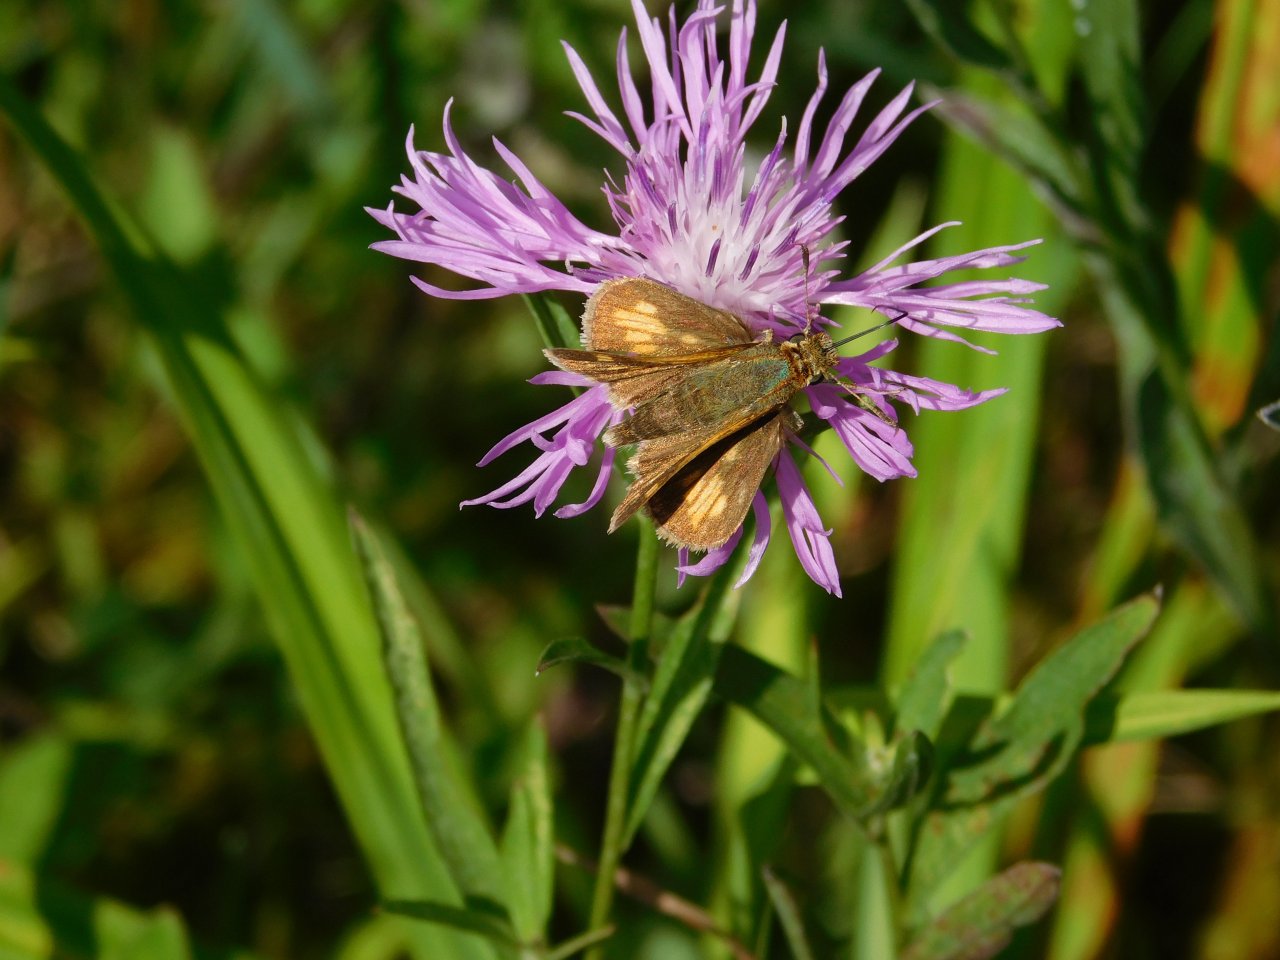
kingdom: Animalia
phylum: Arthropoda
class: Insecta
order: Lepidoptera
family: Hesperiidae
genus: Polites
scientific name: Polites coras
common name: Peck's Skipper
